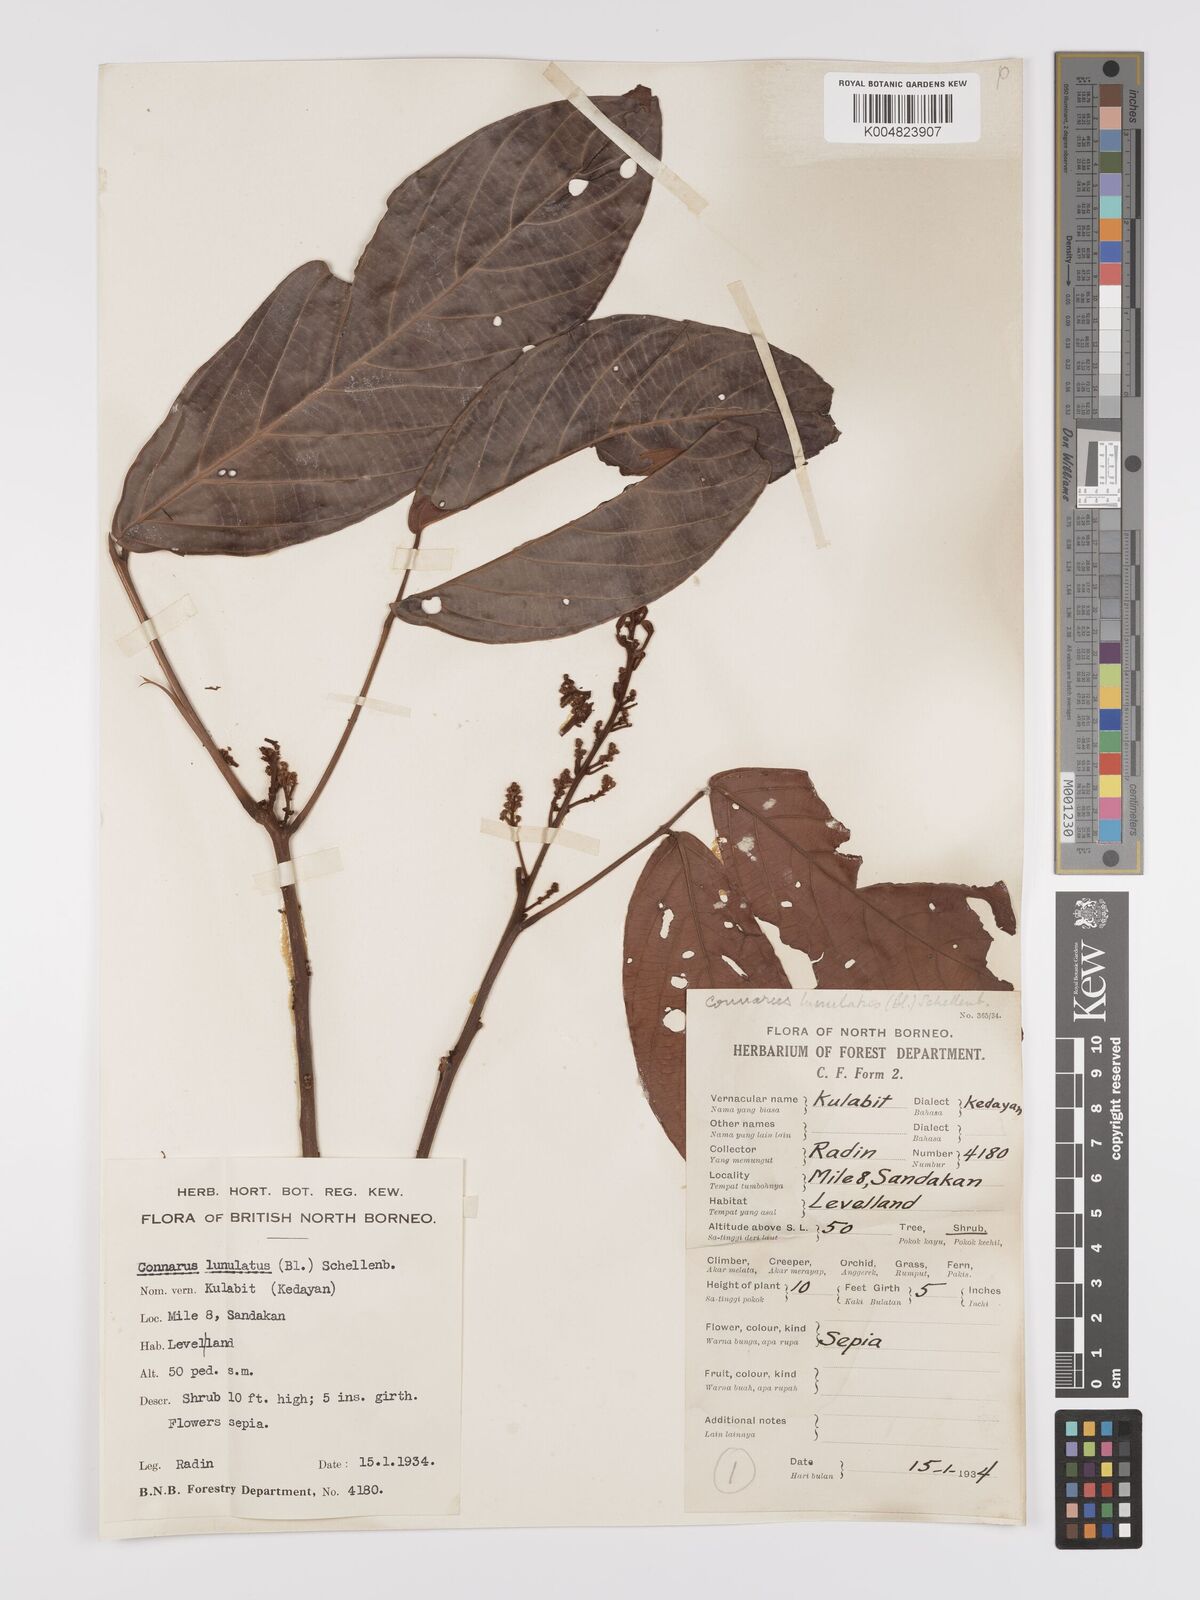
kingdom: Plantae
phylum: Tracheophyta
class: Magnoliopsida
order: Oxalidales
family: Connaraceae
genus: Connarus
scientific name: Connarus grandis
